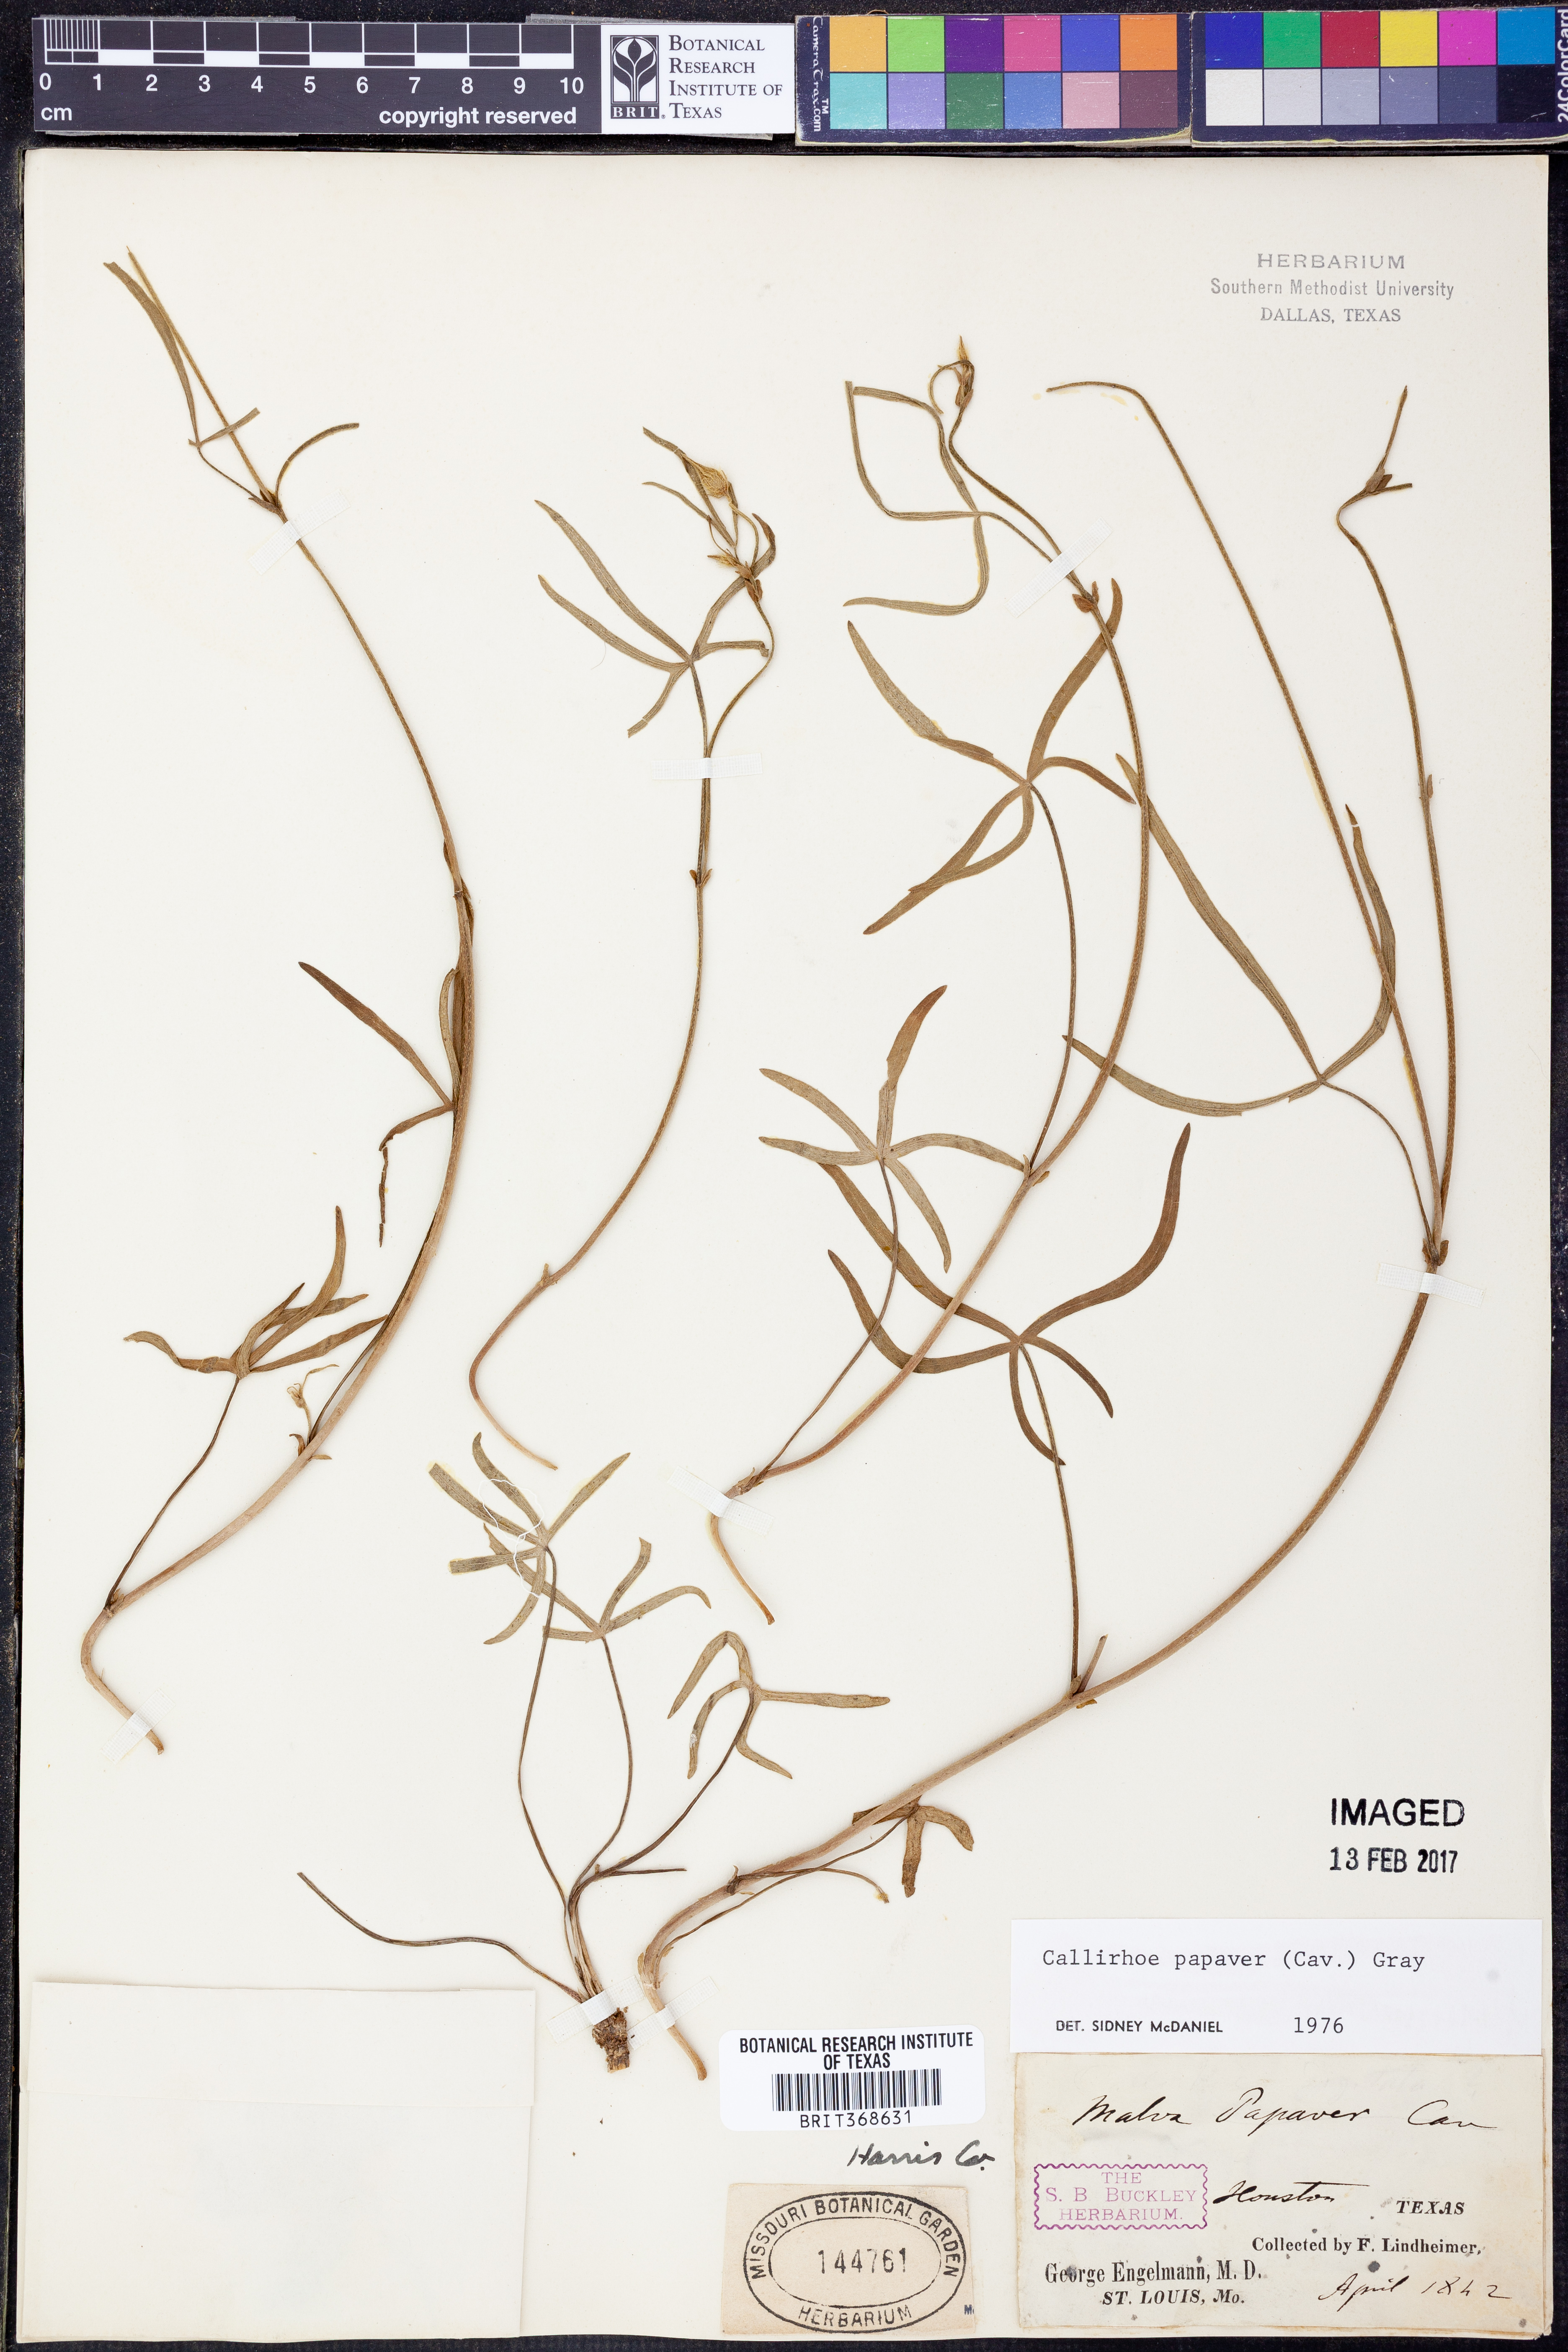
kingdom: Plantae
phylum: Tracheophyta
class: Magnoliopsida
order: Malvales
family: Malvaceae
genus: Callirhoe
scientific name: Callirhoe papaver
